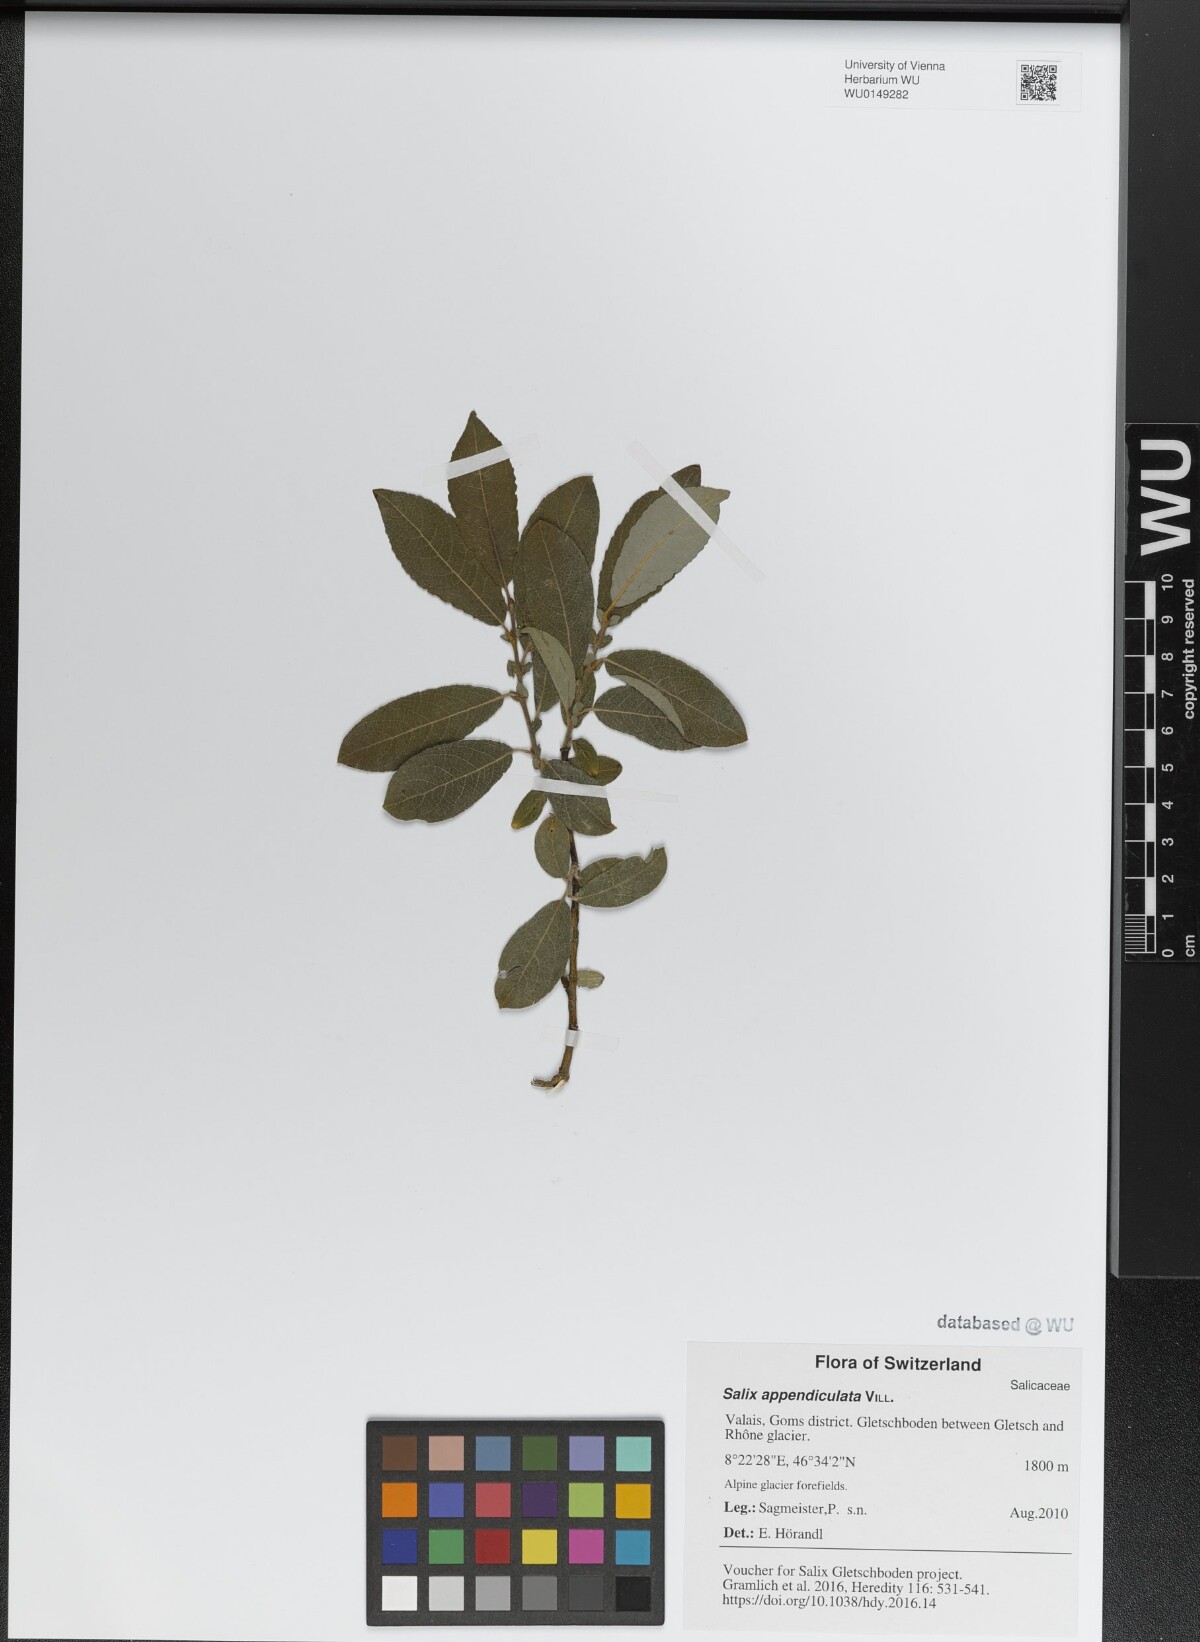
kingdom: Plantae
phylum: Tracheophyta
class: Magnoliopsida
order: Malpighiales
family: Salicaceae
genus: Salix
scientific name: Salix appendiculata
